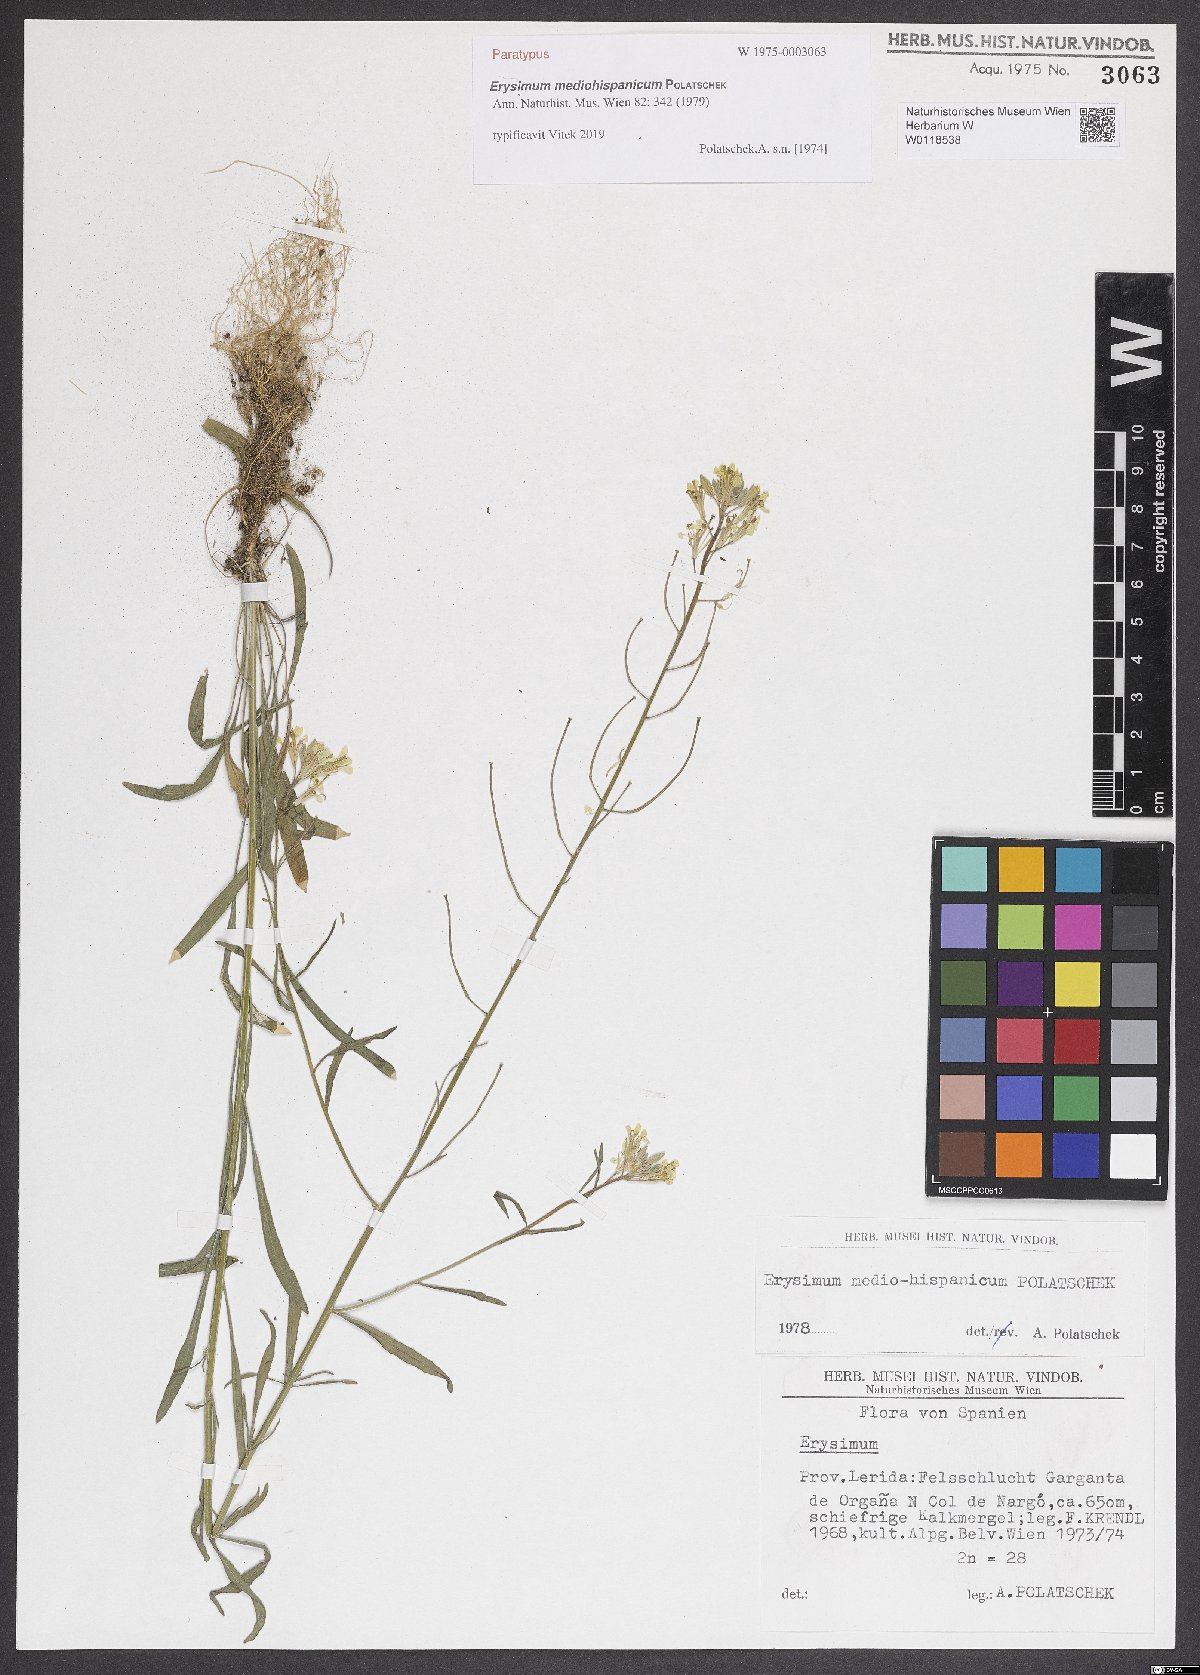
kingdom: Plantae
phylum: Tracheophyta
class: Magnoliopsida
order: Brassicales
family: Brassicaceae
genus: Erysimum
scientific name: Erysimum nevadense
